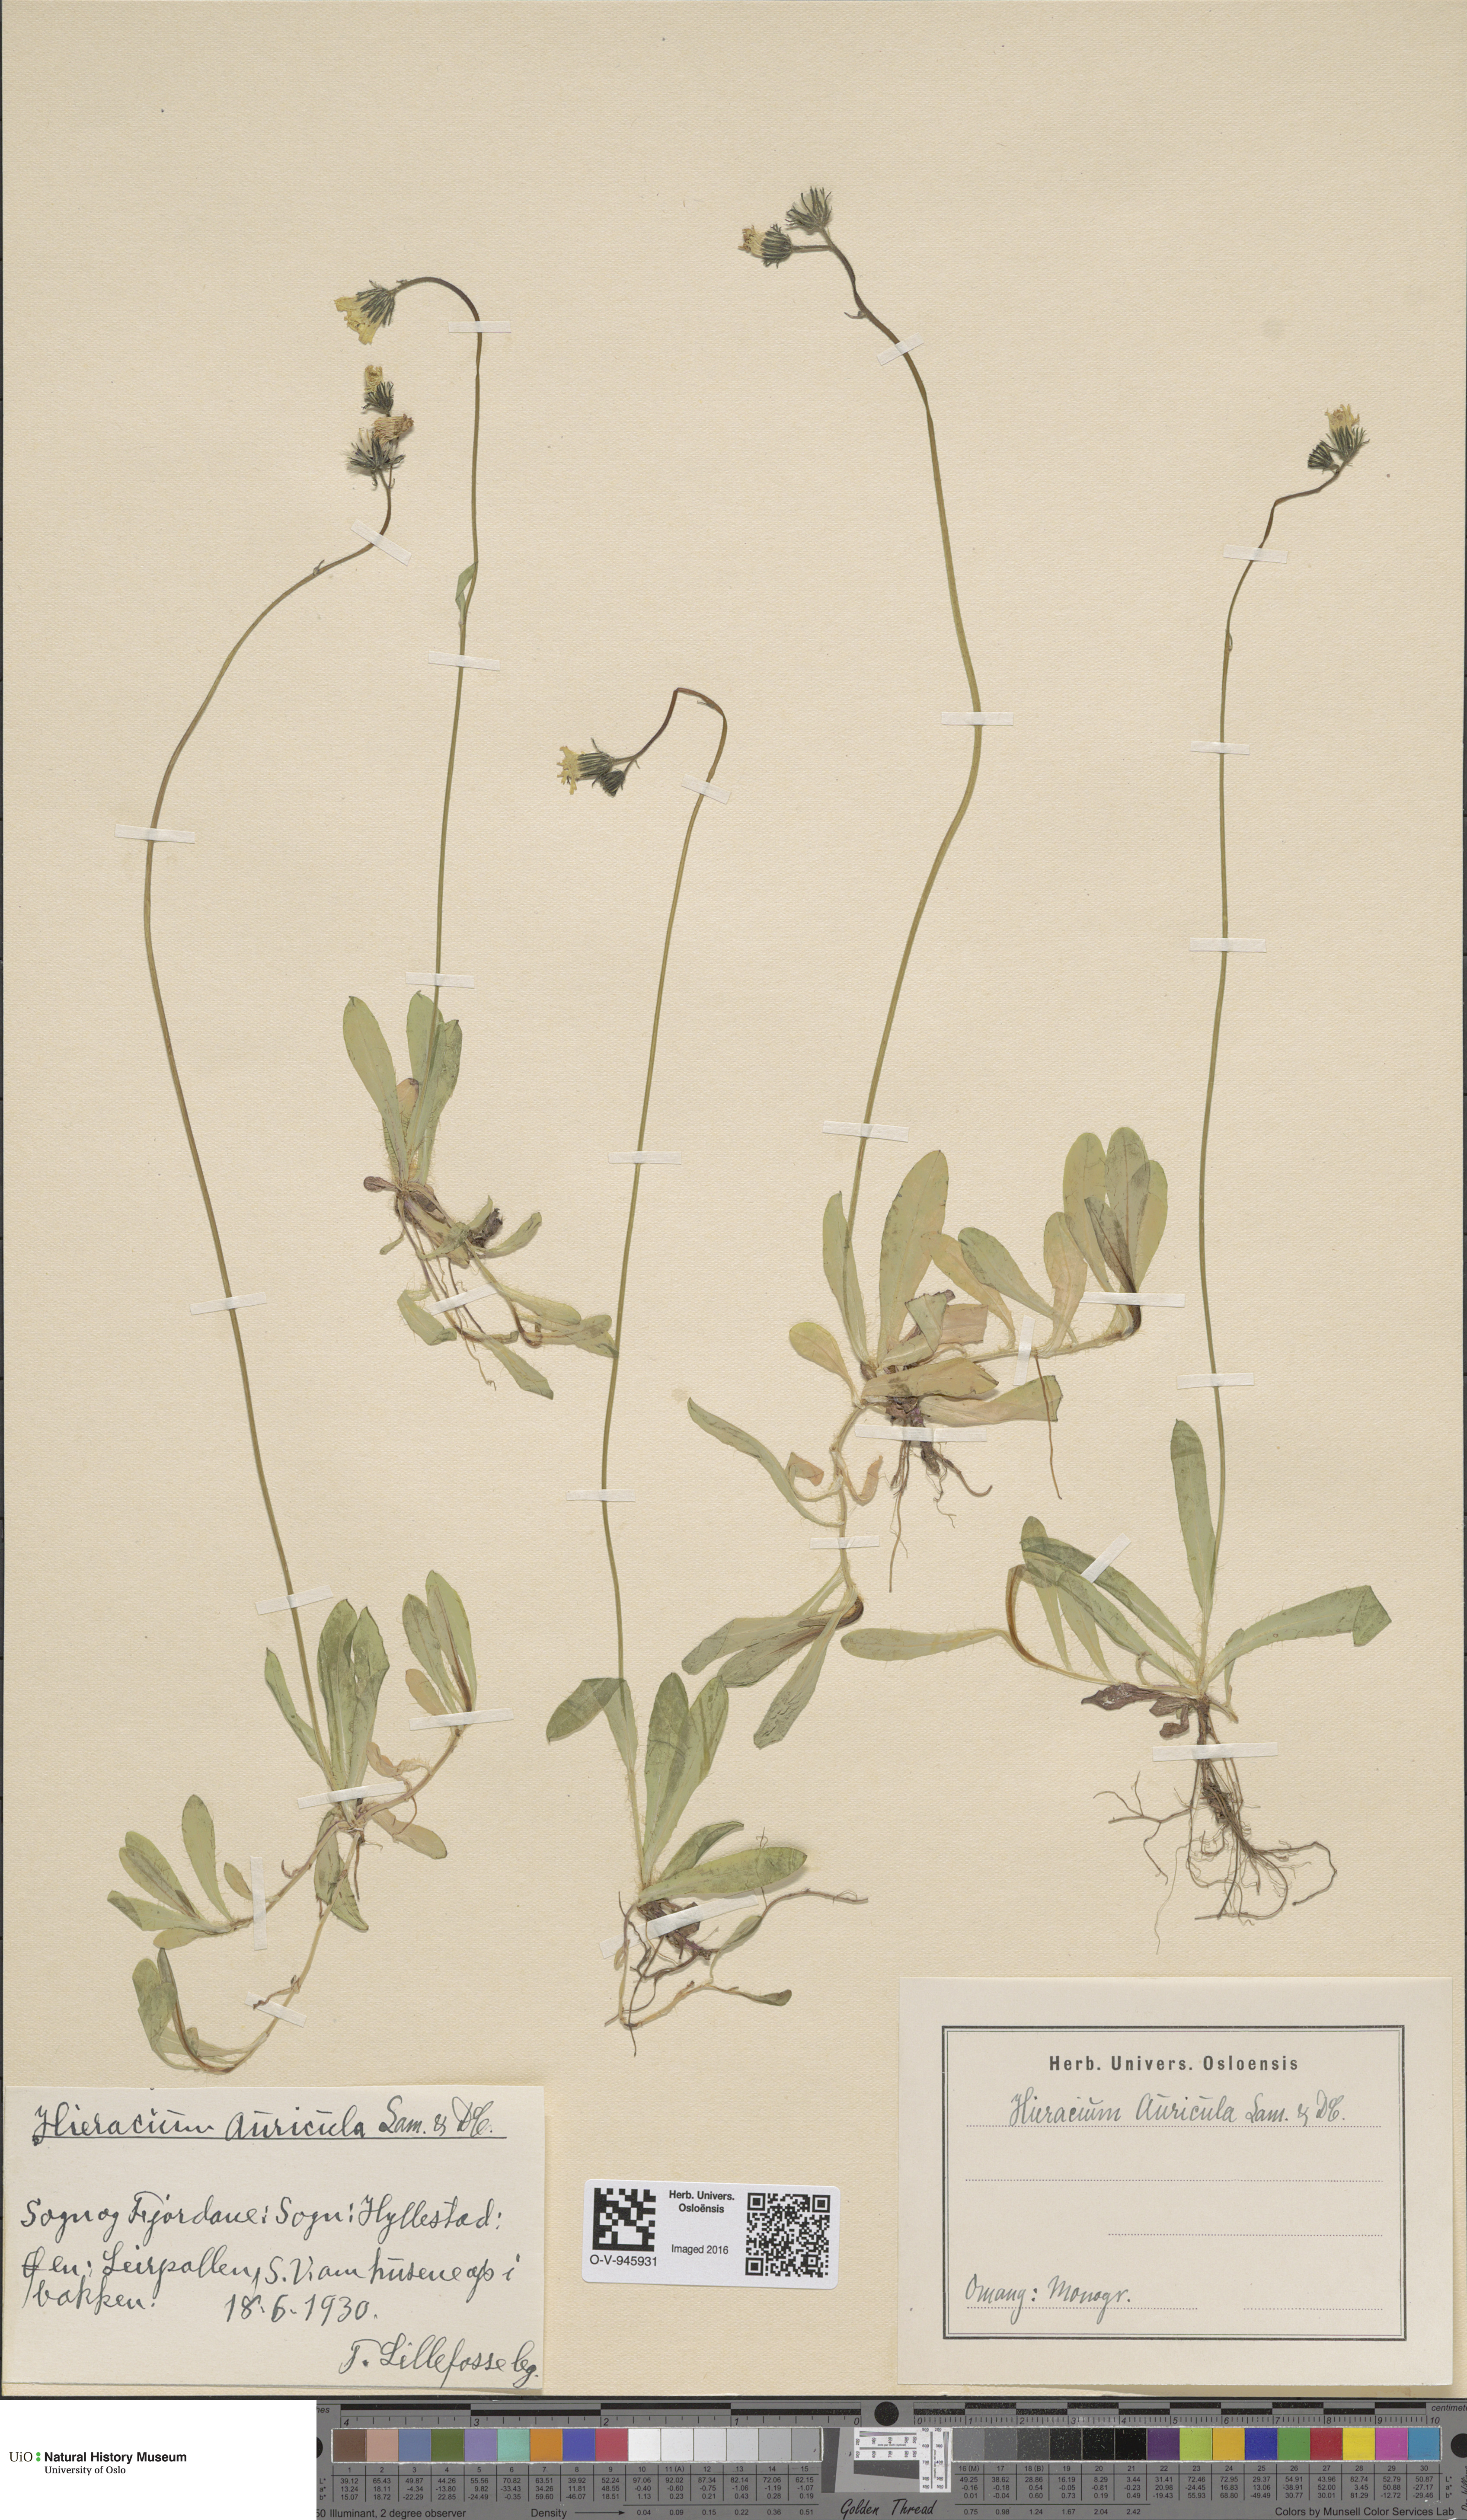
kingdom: Plantae
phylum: Tracheophyta
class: Magnoliopsida
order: Asterales
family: Asteraceae
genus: Pilosella
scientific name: Pilosella lactucella
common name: Glaucous fox-and-cubs
